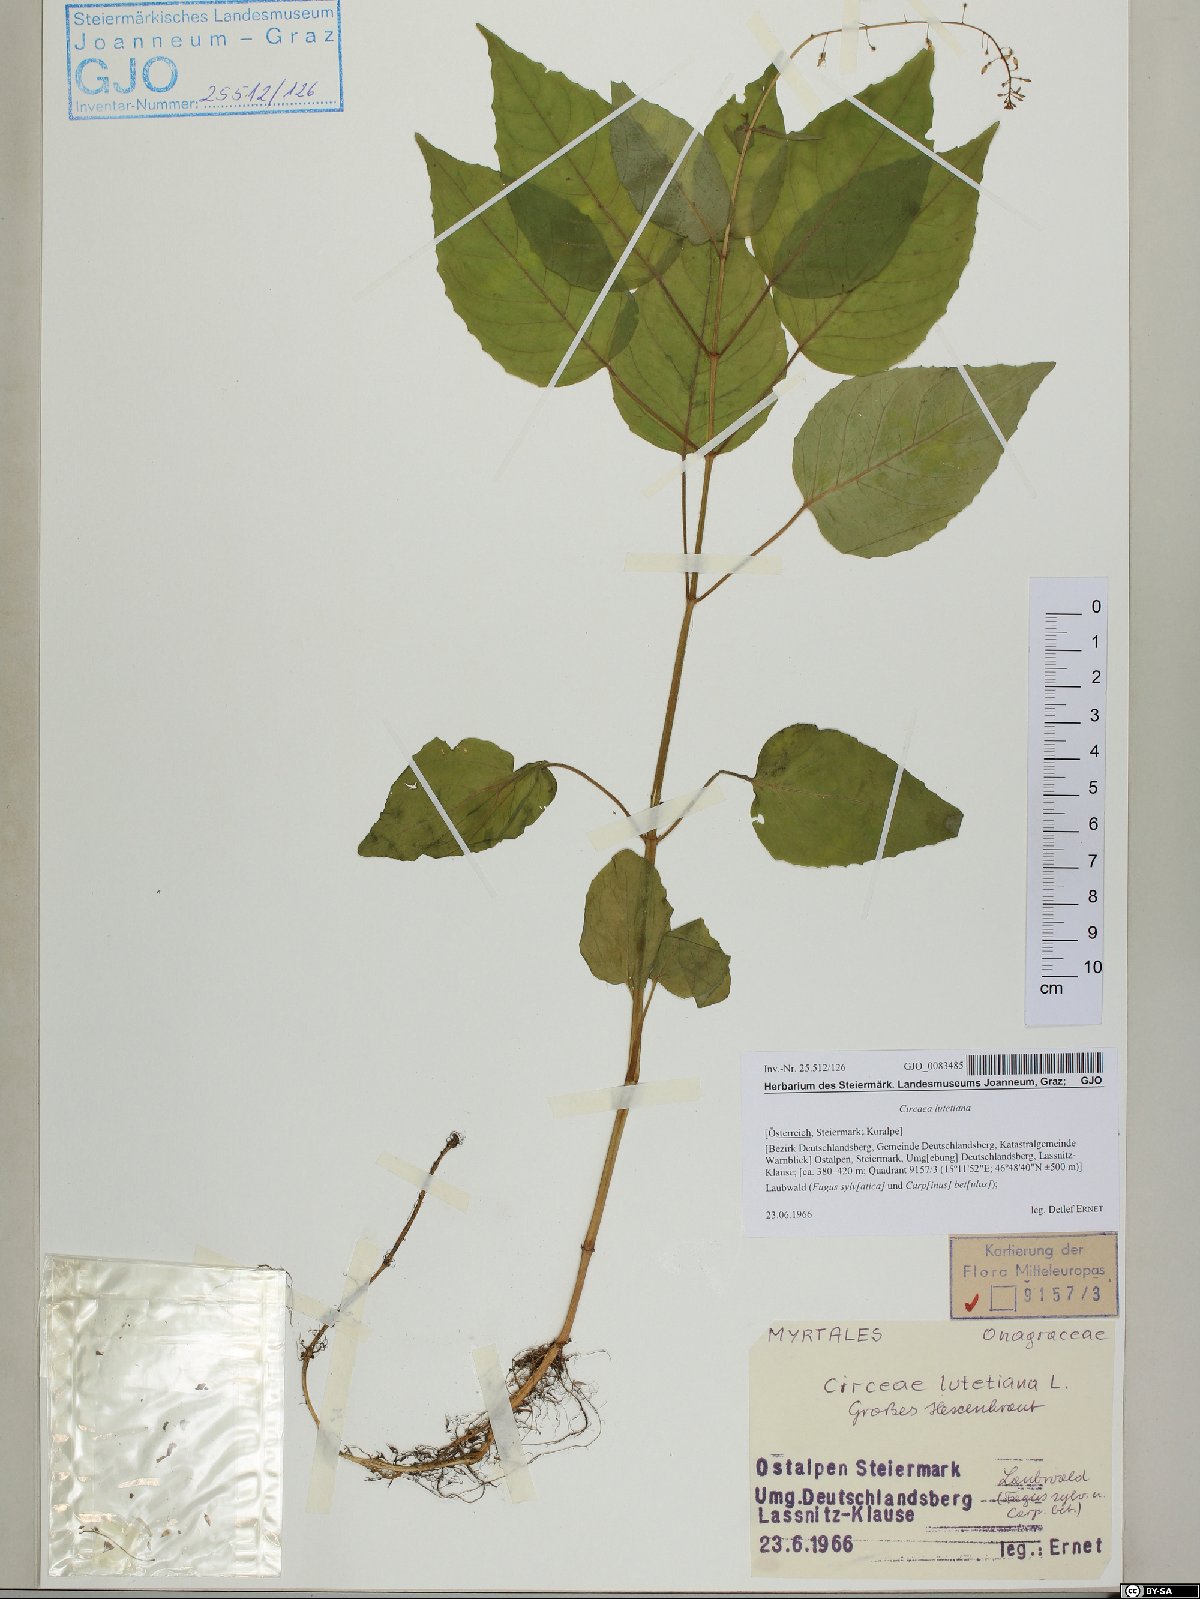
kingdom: Plantae
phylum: Tracheophyta
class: Magnoliopsida
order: Myrtales
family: Onagraceae
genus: Circaea
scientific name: Circaea lutetiana
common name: Enchanter's-nightshade
